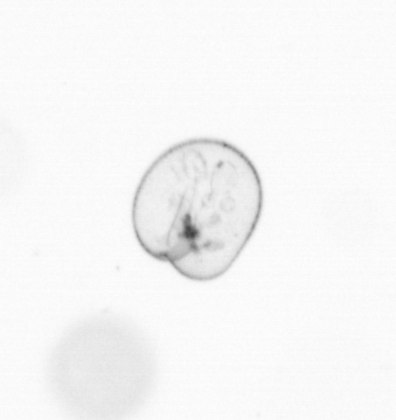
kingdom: Chromista
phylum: Myzozoa
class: Dinophyceae
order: Noctilucales
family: Noctilucaceae
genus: Noctiluca
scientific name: Noctiluca scintillans
